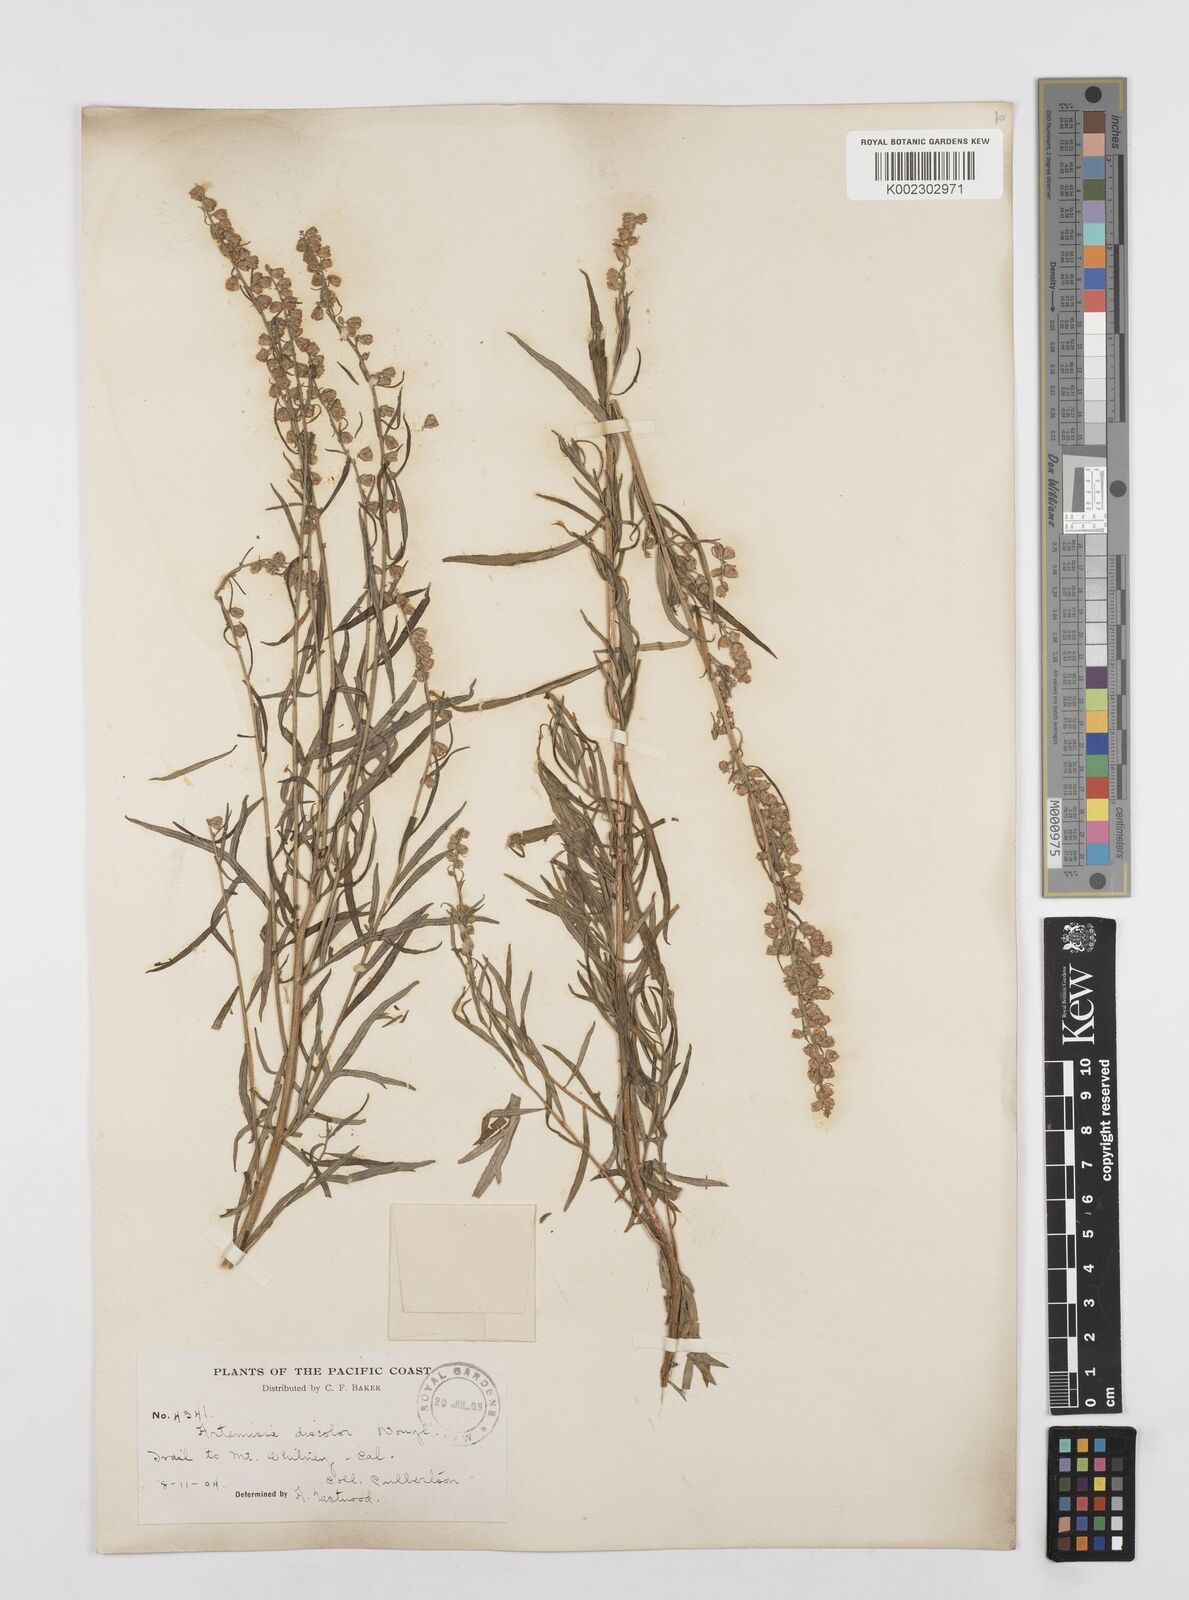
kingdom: Plantae
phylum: Tracheophyta
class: Magnoliopsida
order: Asterales
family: Asteraceae
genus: Artemisia
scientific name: Artemisia ludoviciana
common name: Western mugwort
